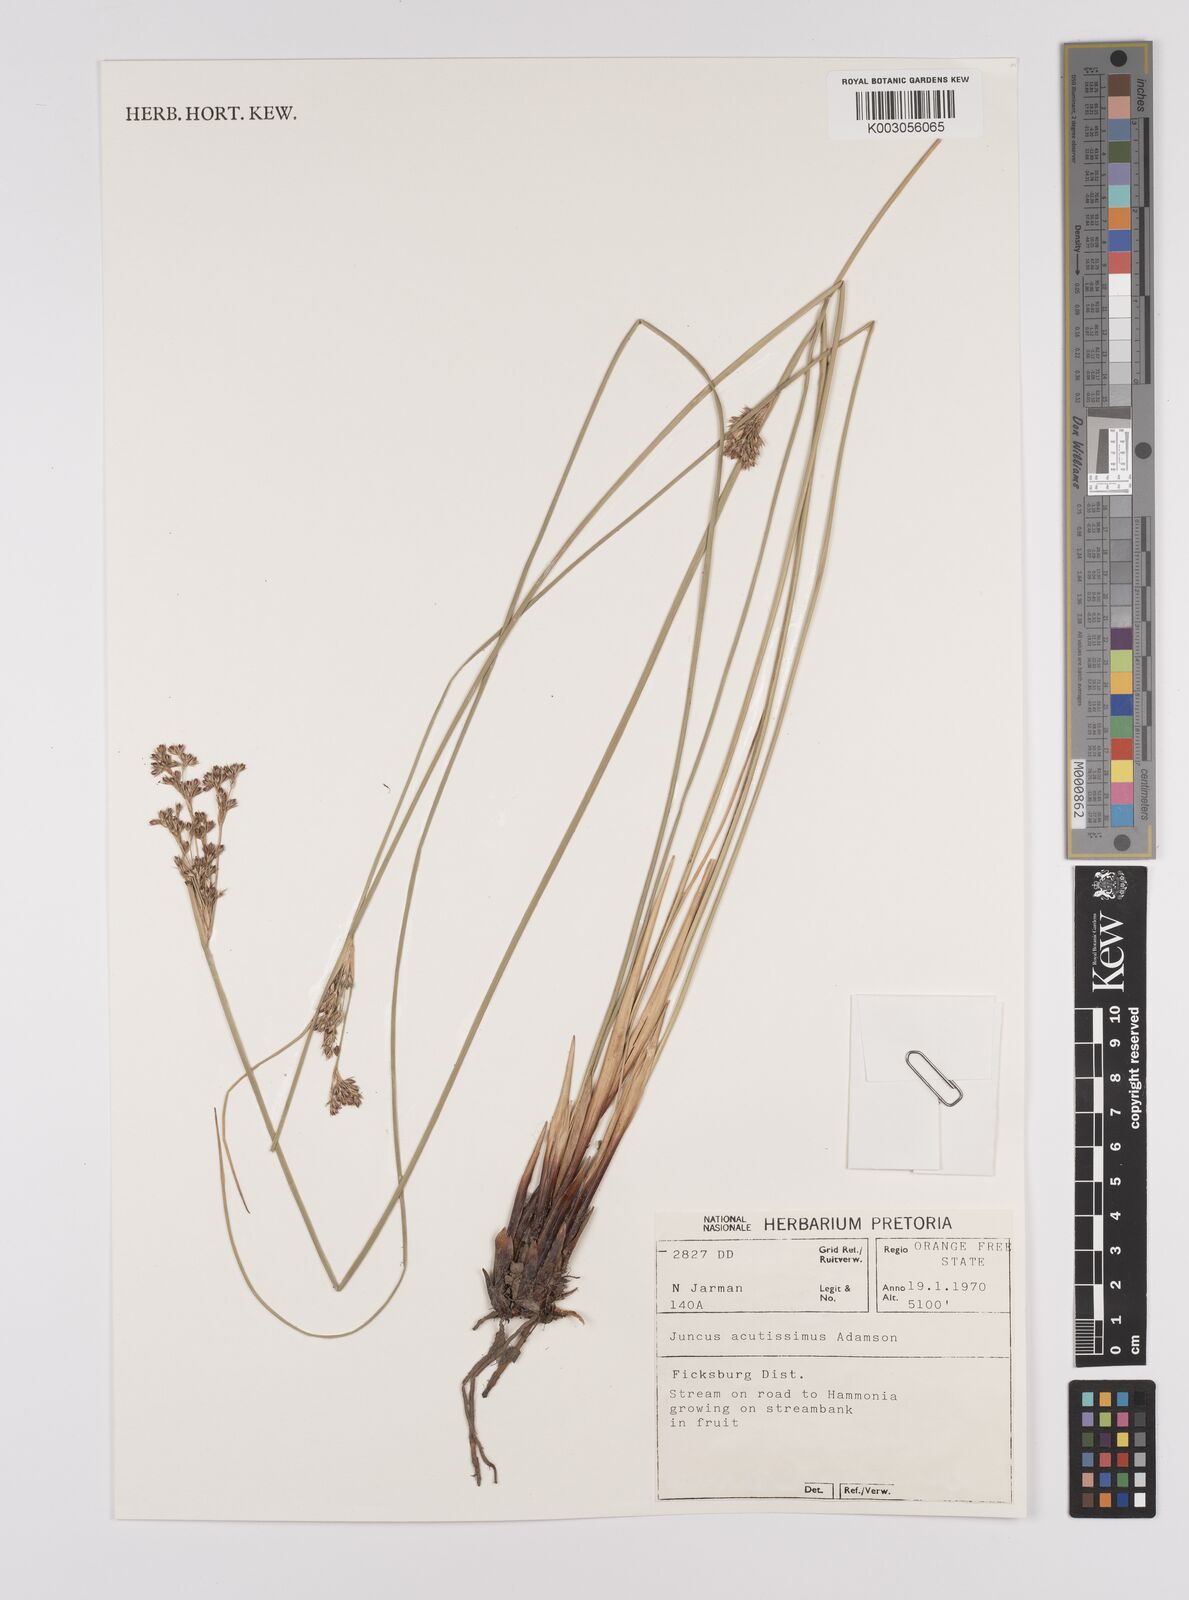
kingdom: Plantae
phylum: Tracheophyta
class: Liliopsida
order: Poales
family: Juncaceae
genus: Juncus
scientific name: Juncus inflexus
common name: Hard rush
